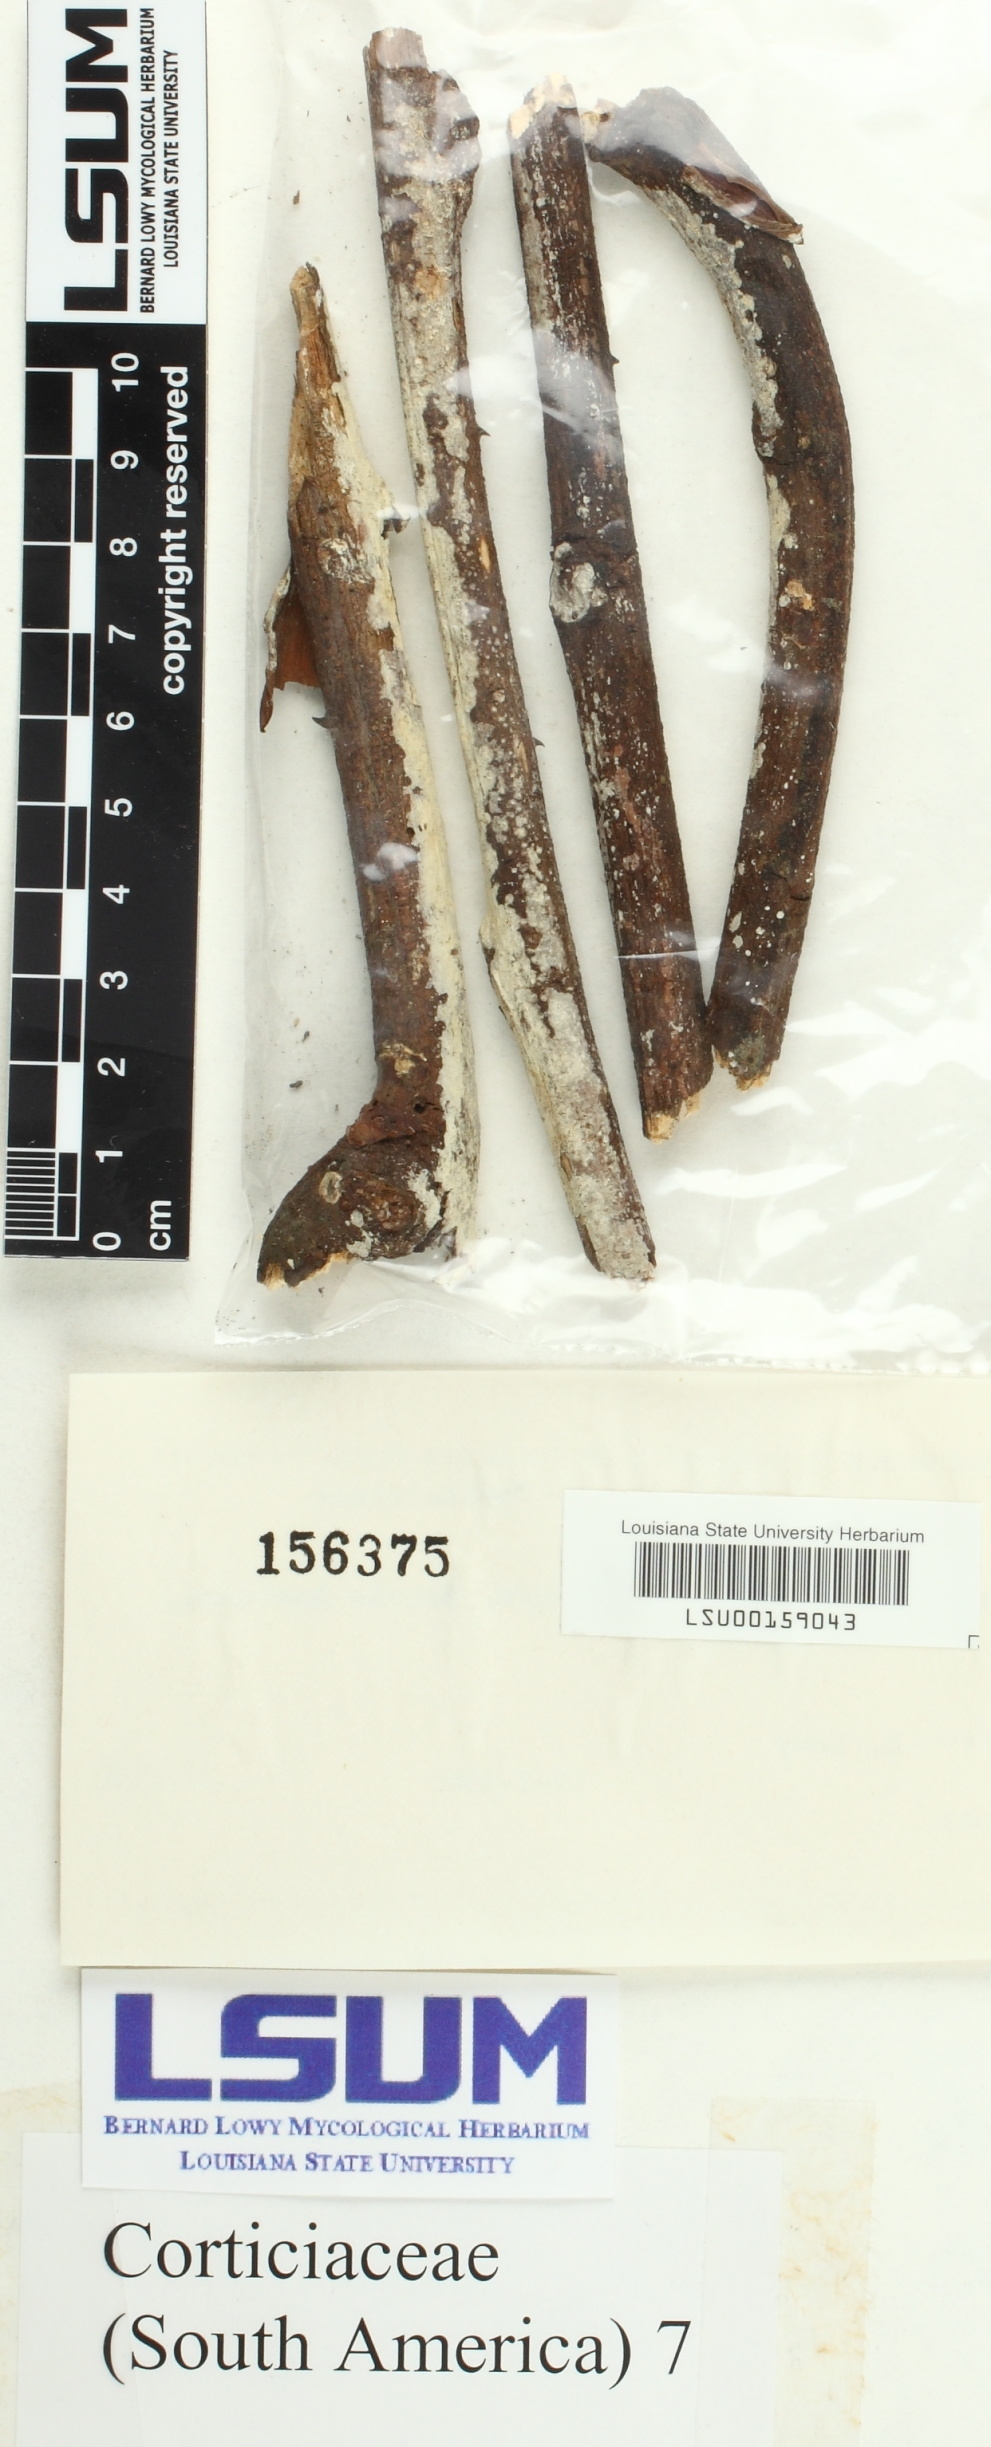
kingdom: Fungi
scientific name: Fungi
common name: Fungi
